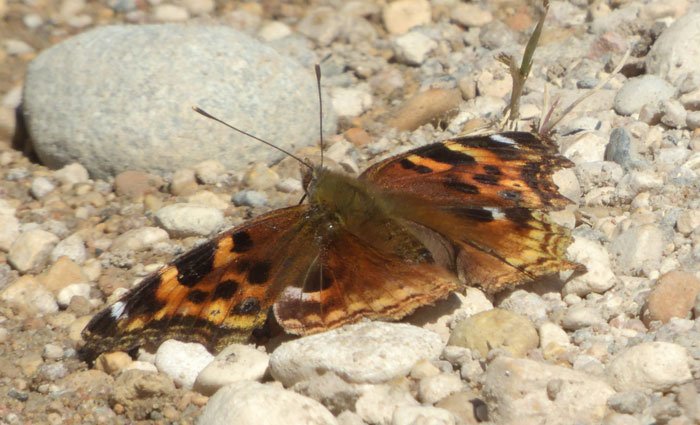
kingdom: Animalia
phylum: Arthropoda
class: Insecta
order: Lepidoptera
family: Nymphalidae
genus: Polygonia
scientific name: Polygonia vaualbum
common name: Compton Tortoiseshell
